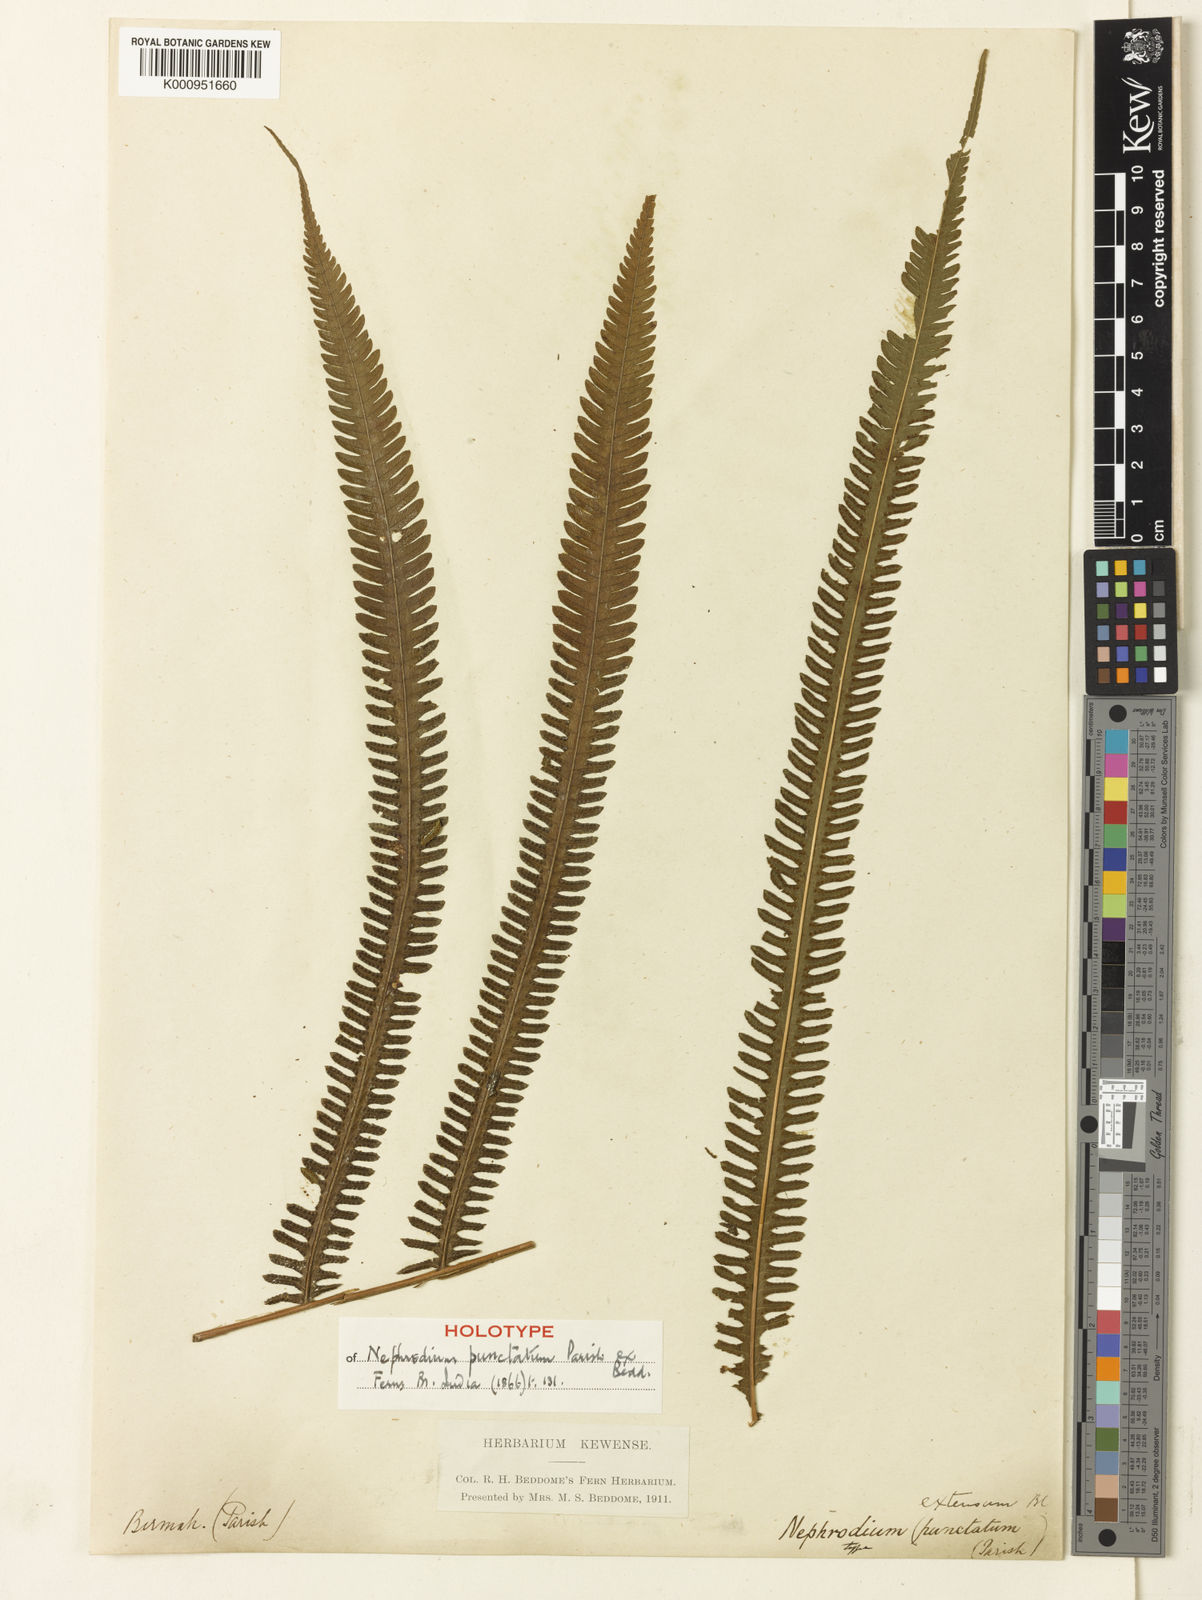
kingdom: Plantae
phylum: Tracheophyta
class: Polypodiopsida
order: Polypodiales
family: Thelypteridaceae
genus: Amblovenatum
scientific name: Amblovenatum opulentum
